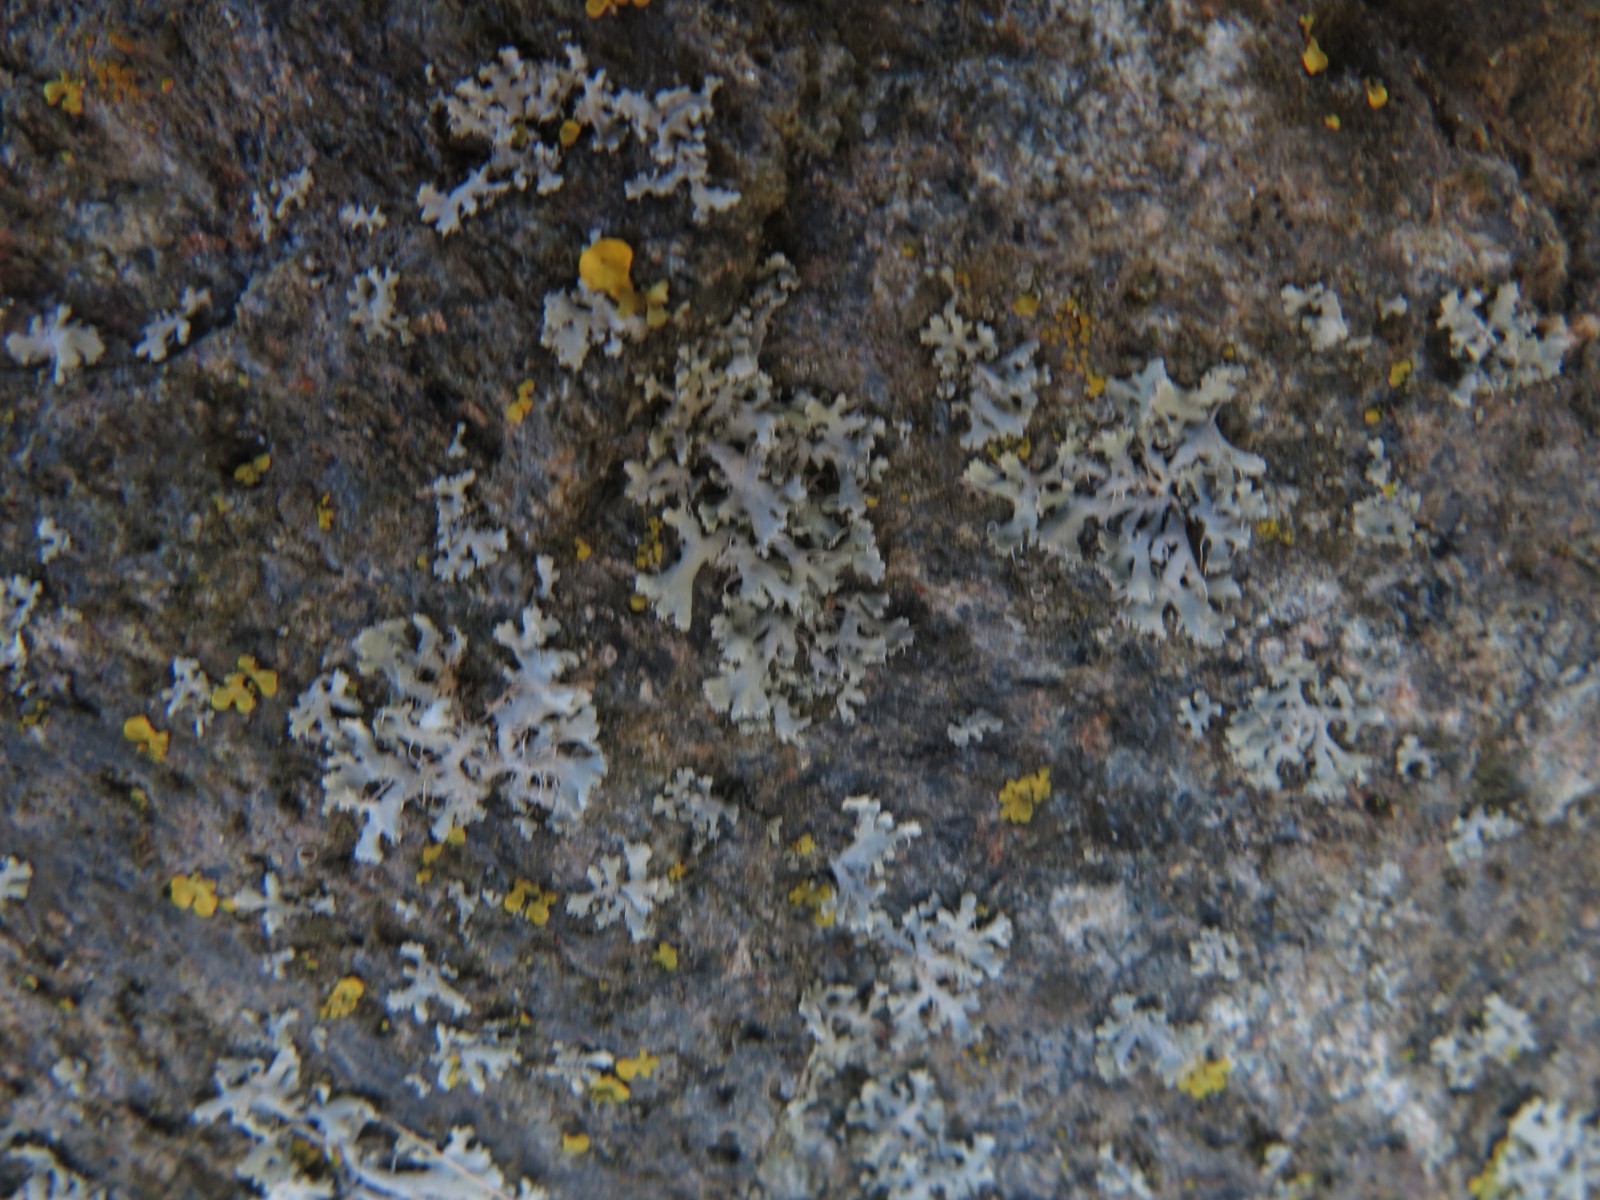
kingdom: Fungi
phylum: Ascomycota
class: Lecanoromycetes
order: Caliciales
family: Physciaceae
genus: Physcia
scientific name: Physcia tenella
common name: spæd rosetlav
